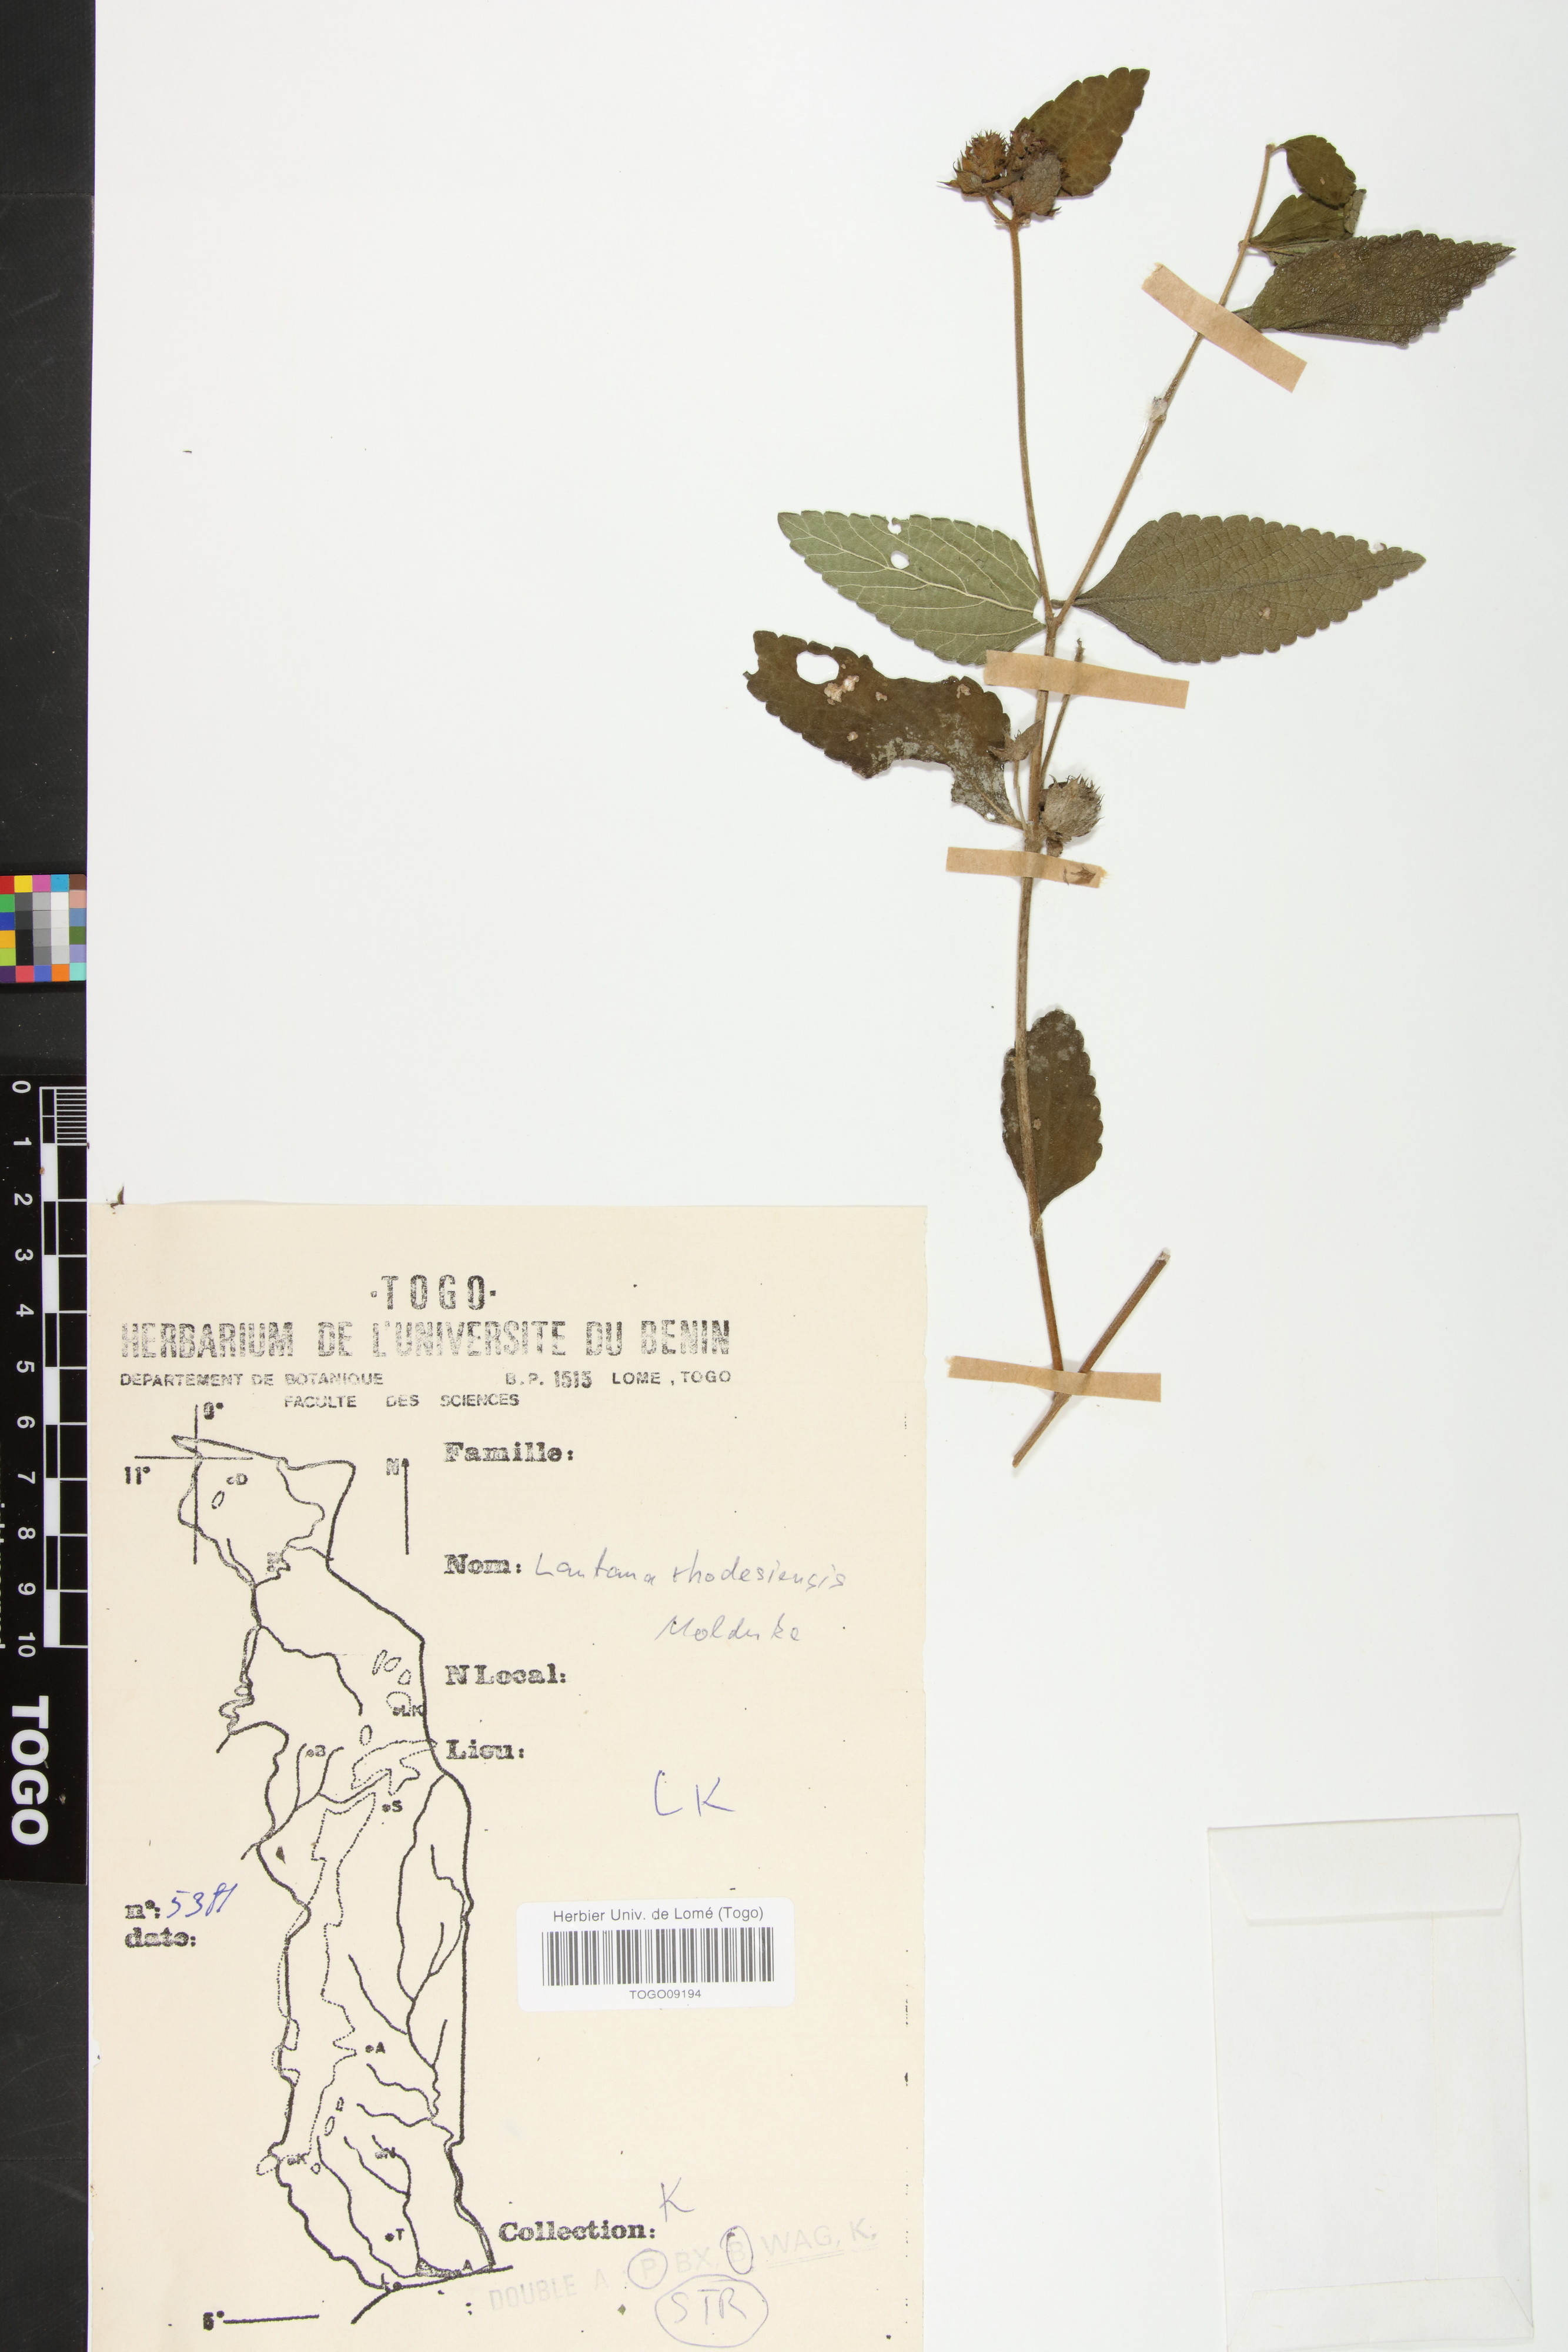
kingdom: Plantae
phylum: Tracheophyta
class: Magnoliopsida
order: Lamiales
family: Verbenaceae
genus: Lantana
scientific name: Lantana ukambensis
